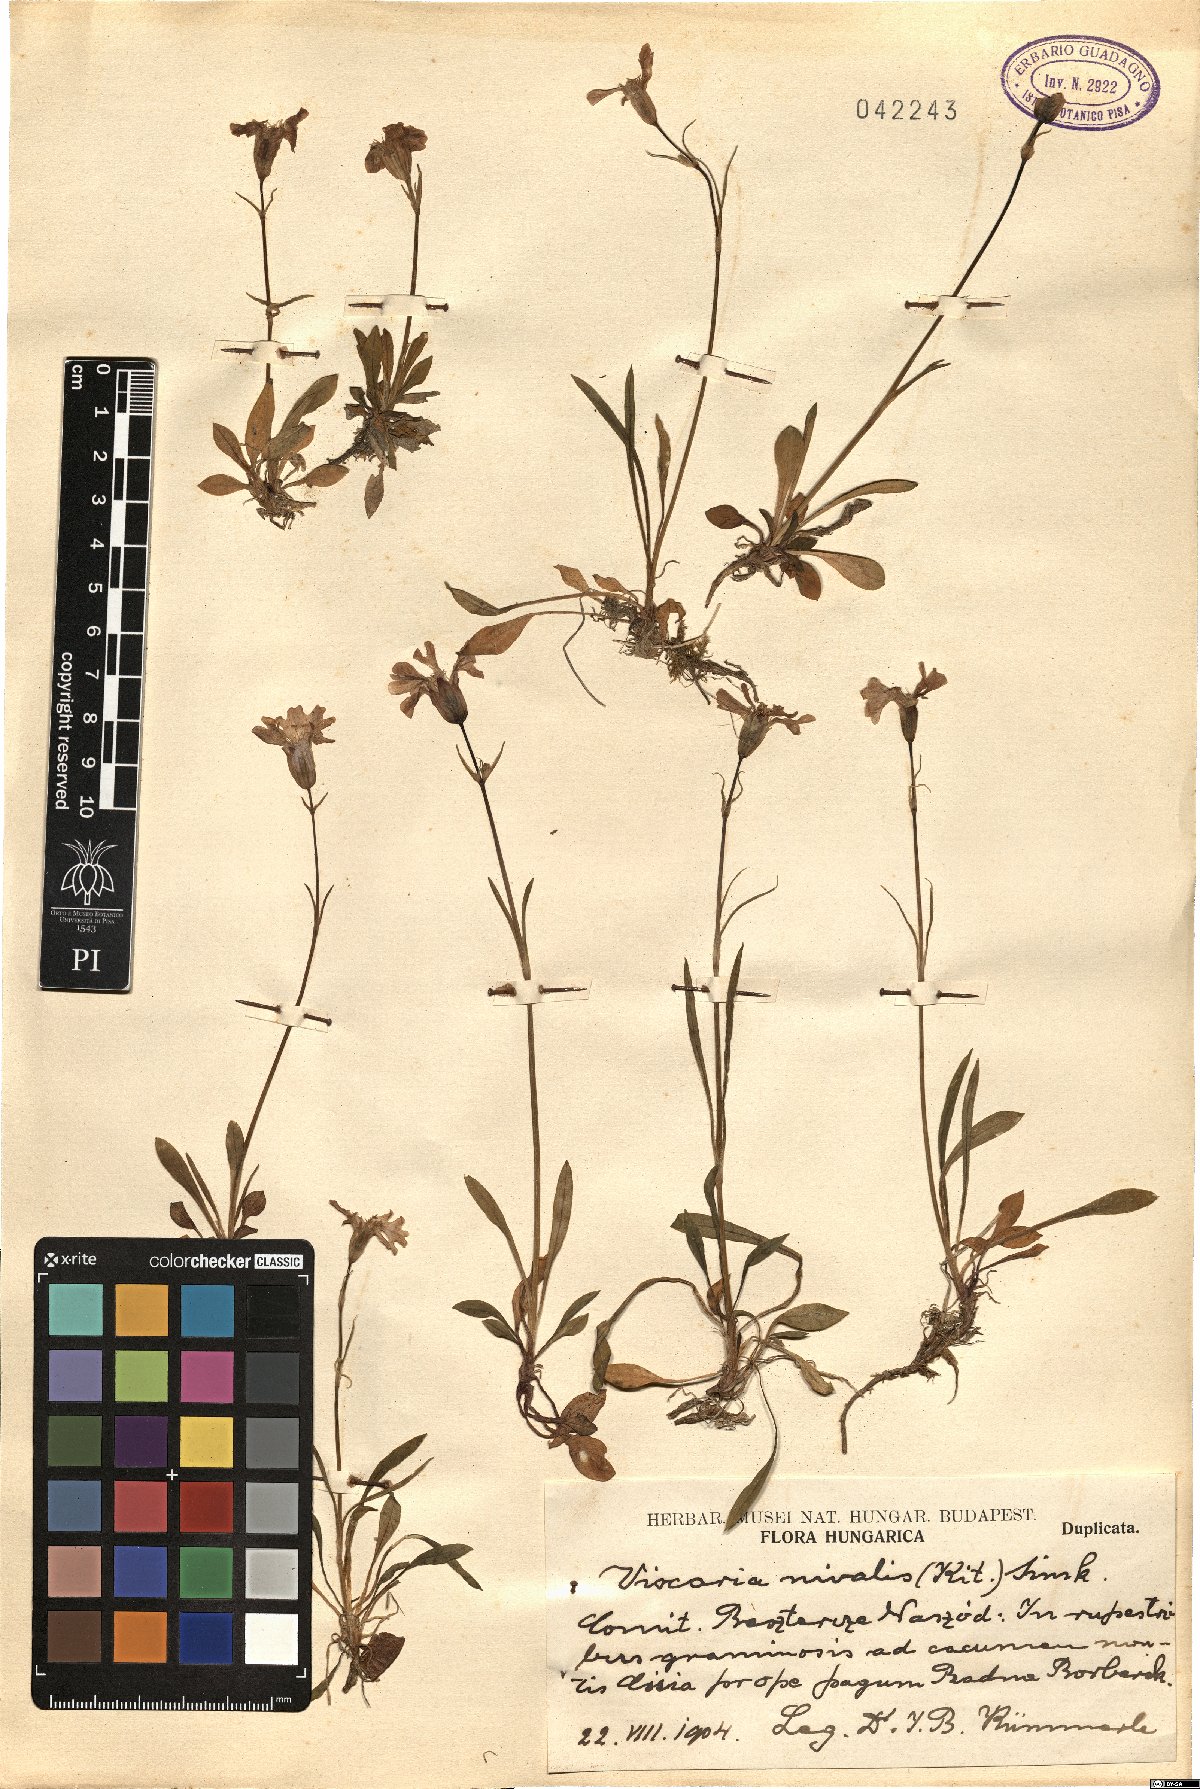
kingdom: Plantae
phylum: Tracheophyta
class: Magnoliopsida
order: Caryophyllales
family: Caryophyllaceae
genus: Silene
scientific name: Silene nivalis
